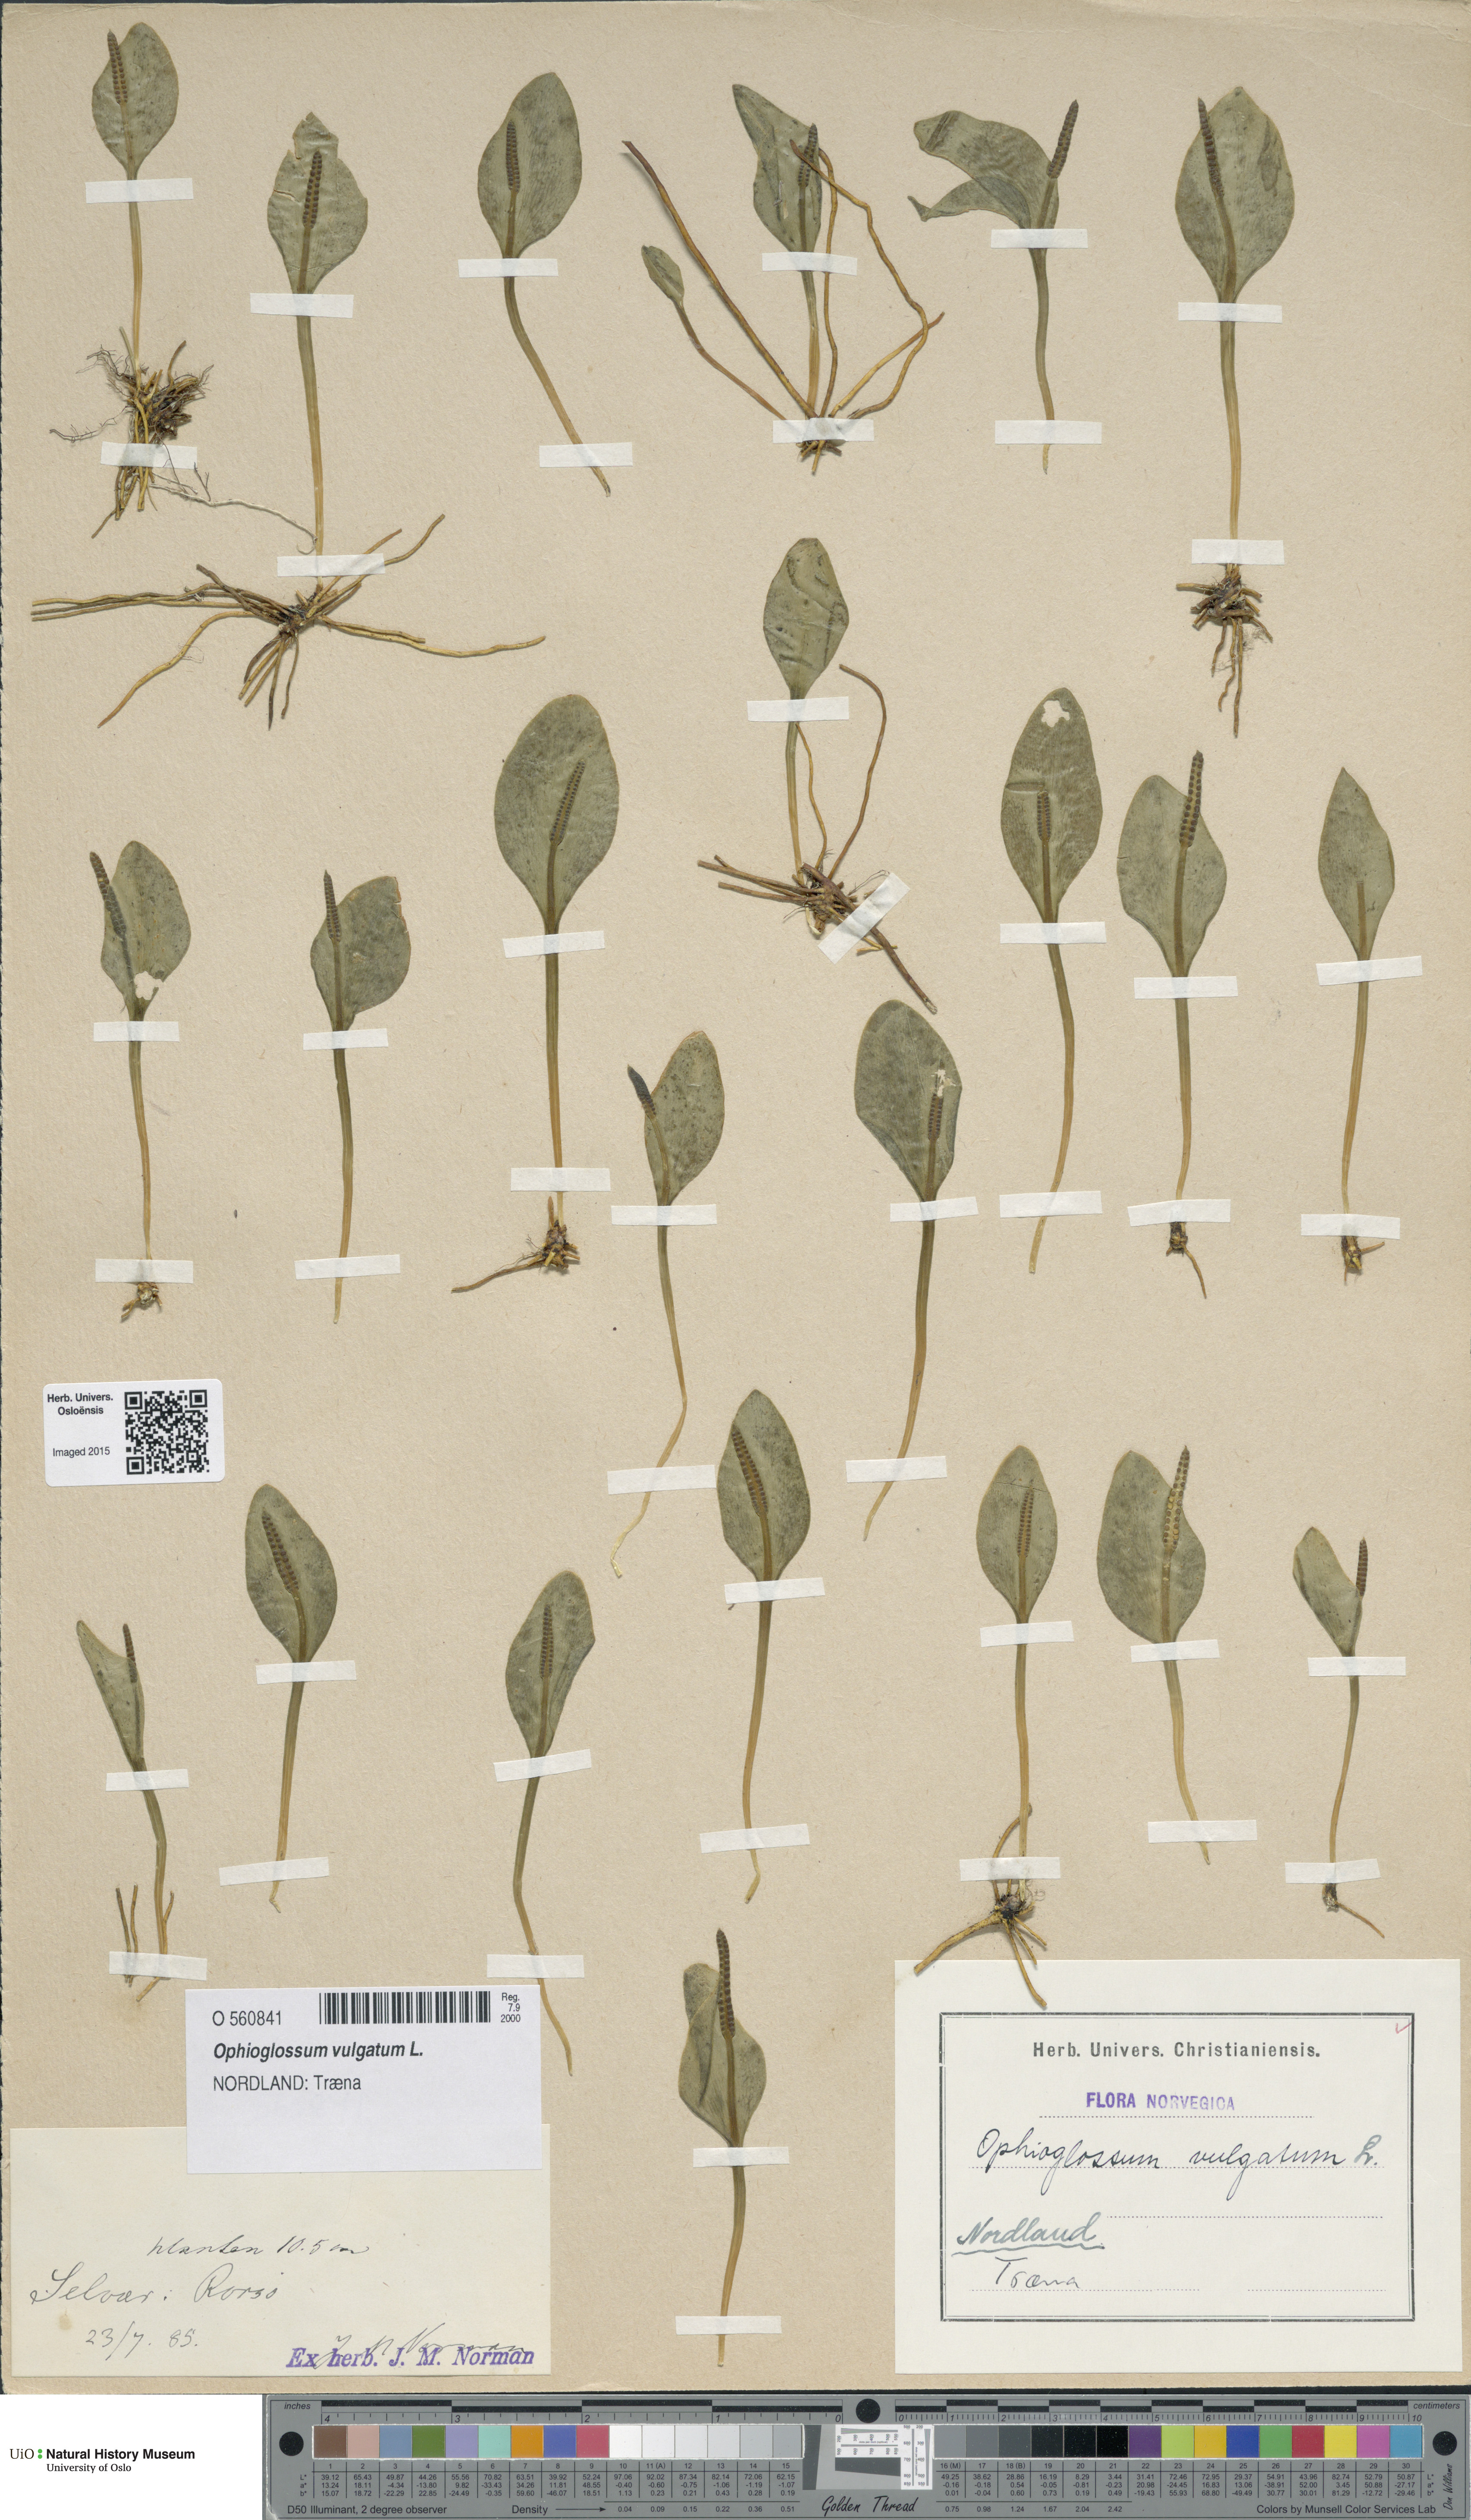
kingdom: Plantae
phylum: Tracheophyta
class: Polypodiopsida
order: Ophioglossales
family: Ophioglossaceae
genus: Ophioglossum
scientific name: Ophioglossum vulgatum
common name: Adder's-tongue
